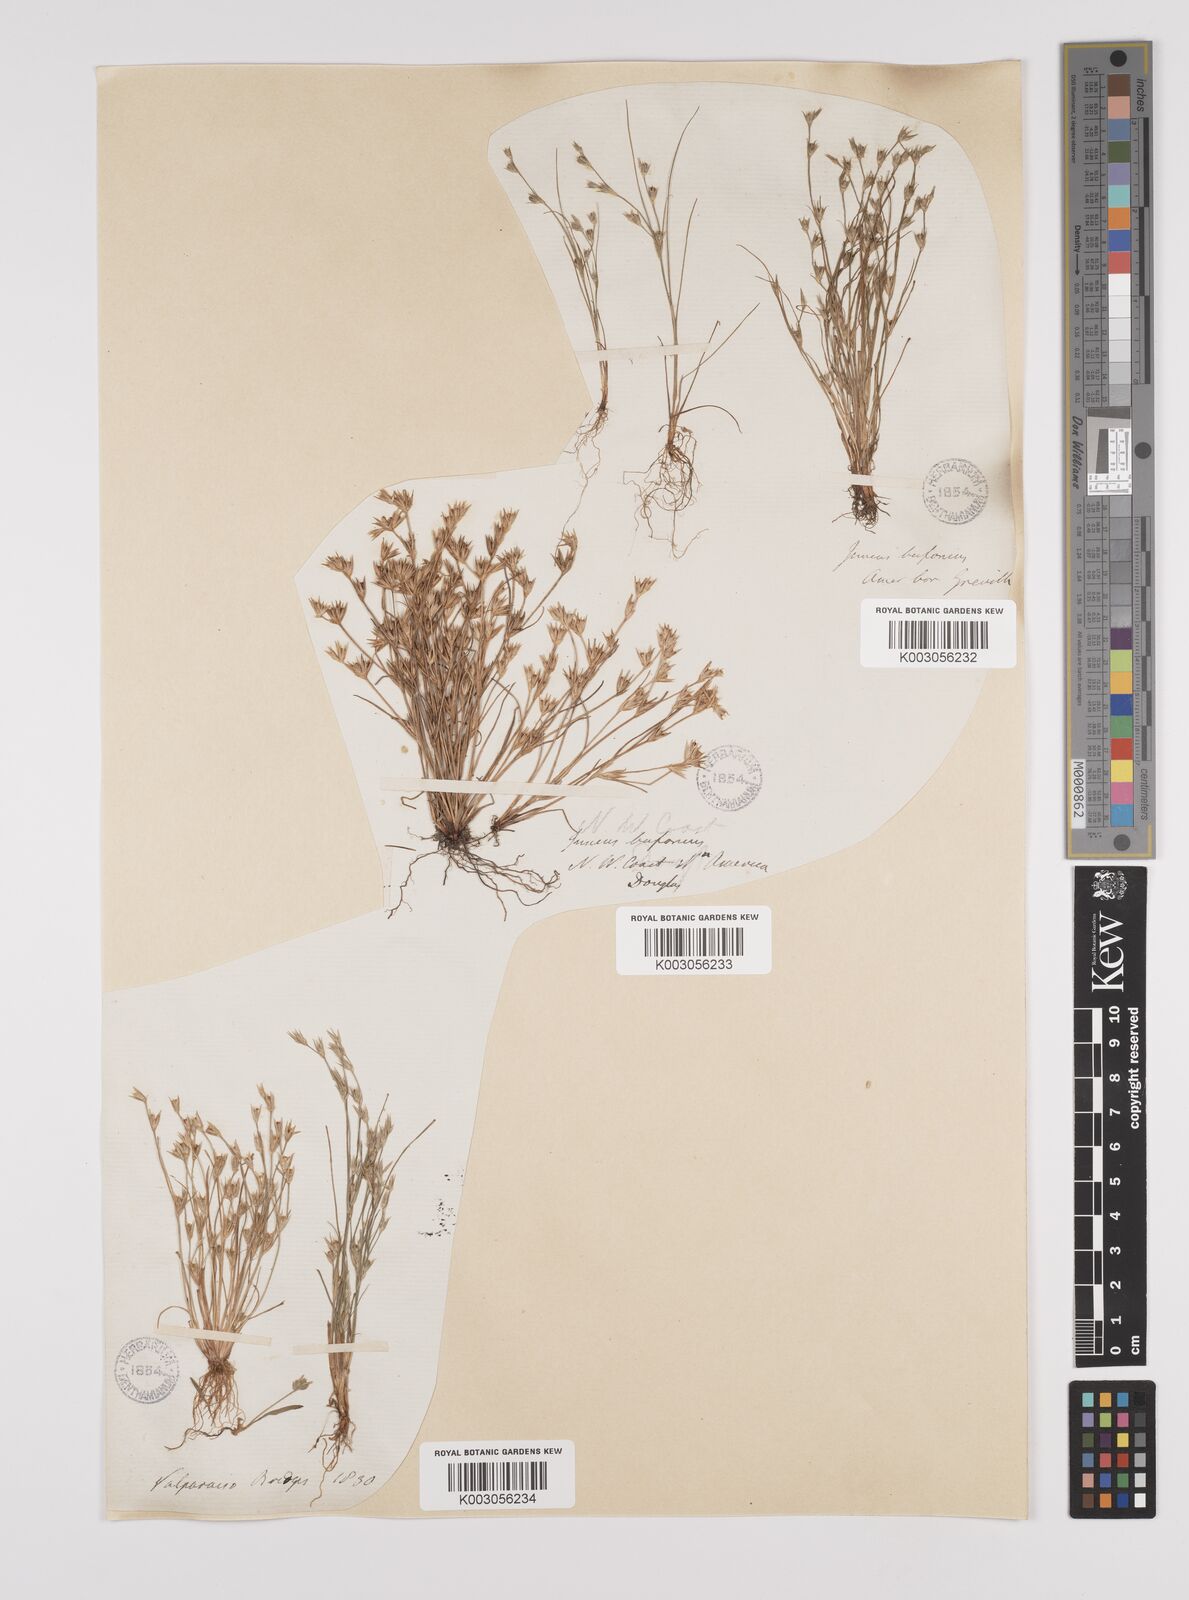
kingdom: Plantae
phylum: Tracheophyta
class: Liliopsida
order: Poales
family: Juncaceae
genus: Juncus
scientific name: Juncus bufonius
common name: Toad rush
